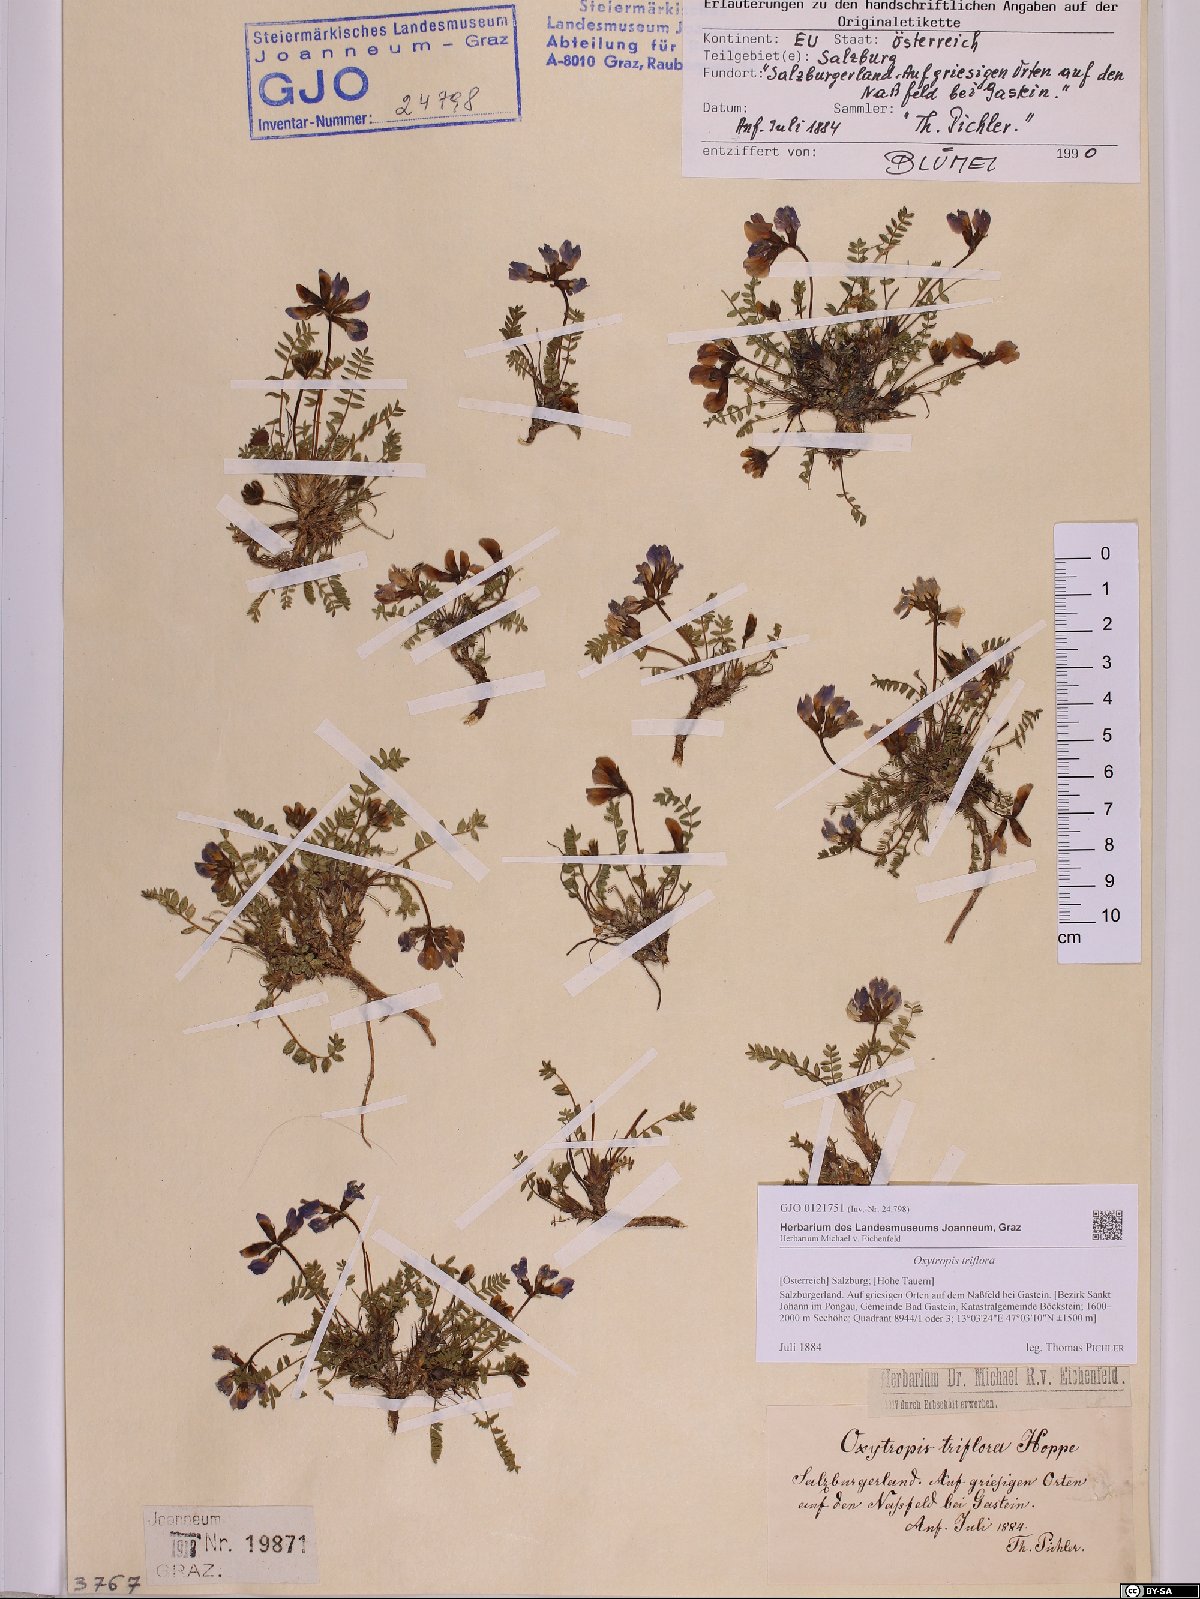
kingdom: Plantae
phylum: Tracheophyta
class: Magnoliopsida
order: Fabales
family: Fabaceae
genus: Oxytropis
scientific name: Oxytropis triflora
